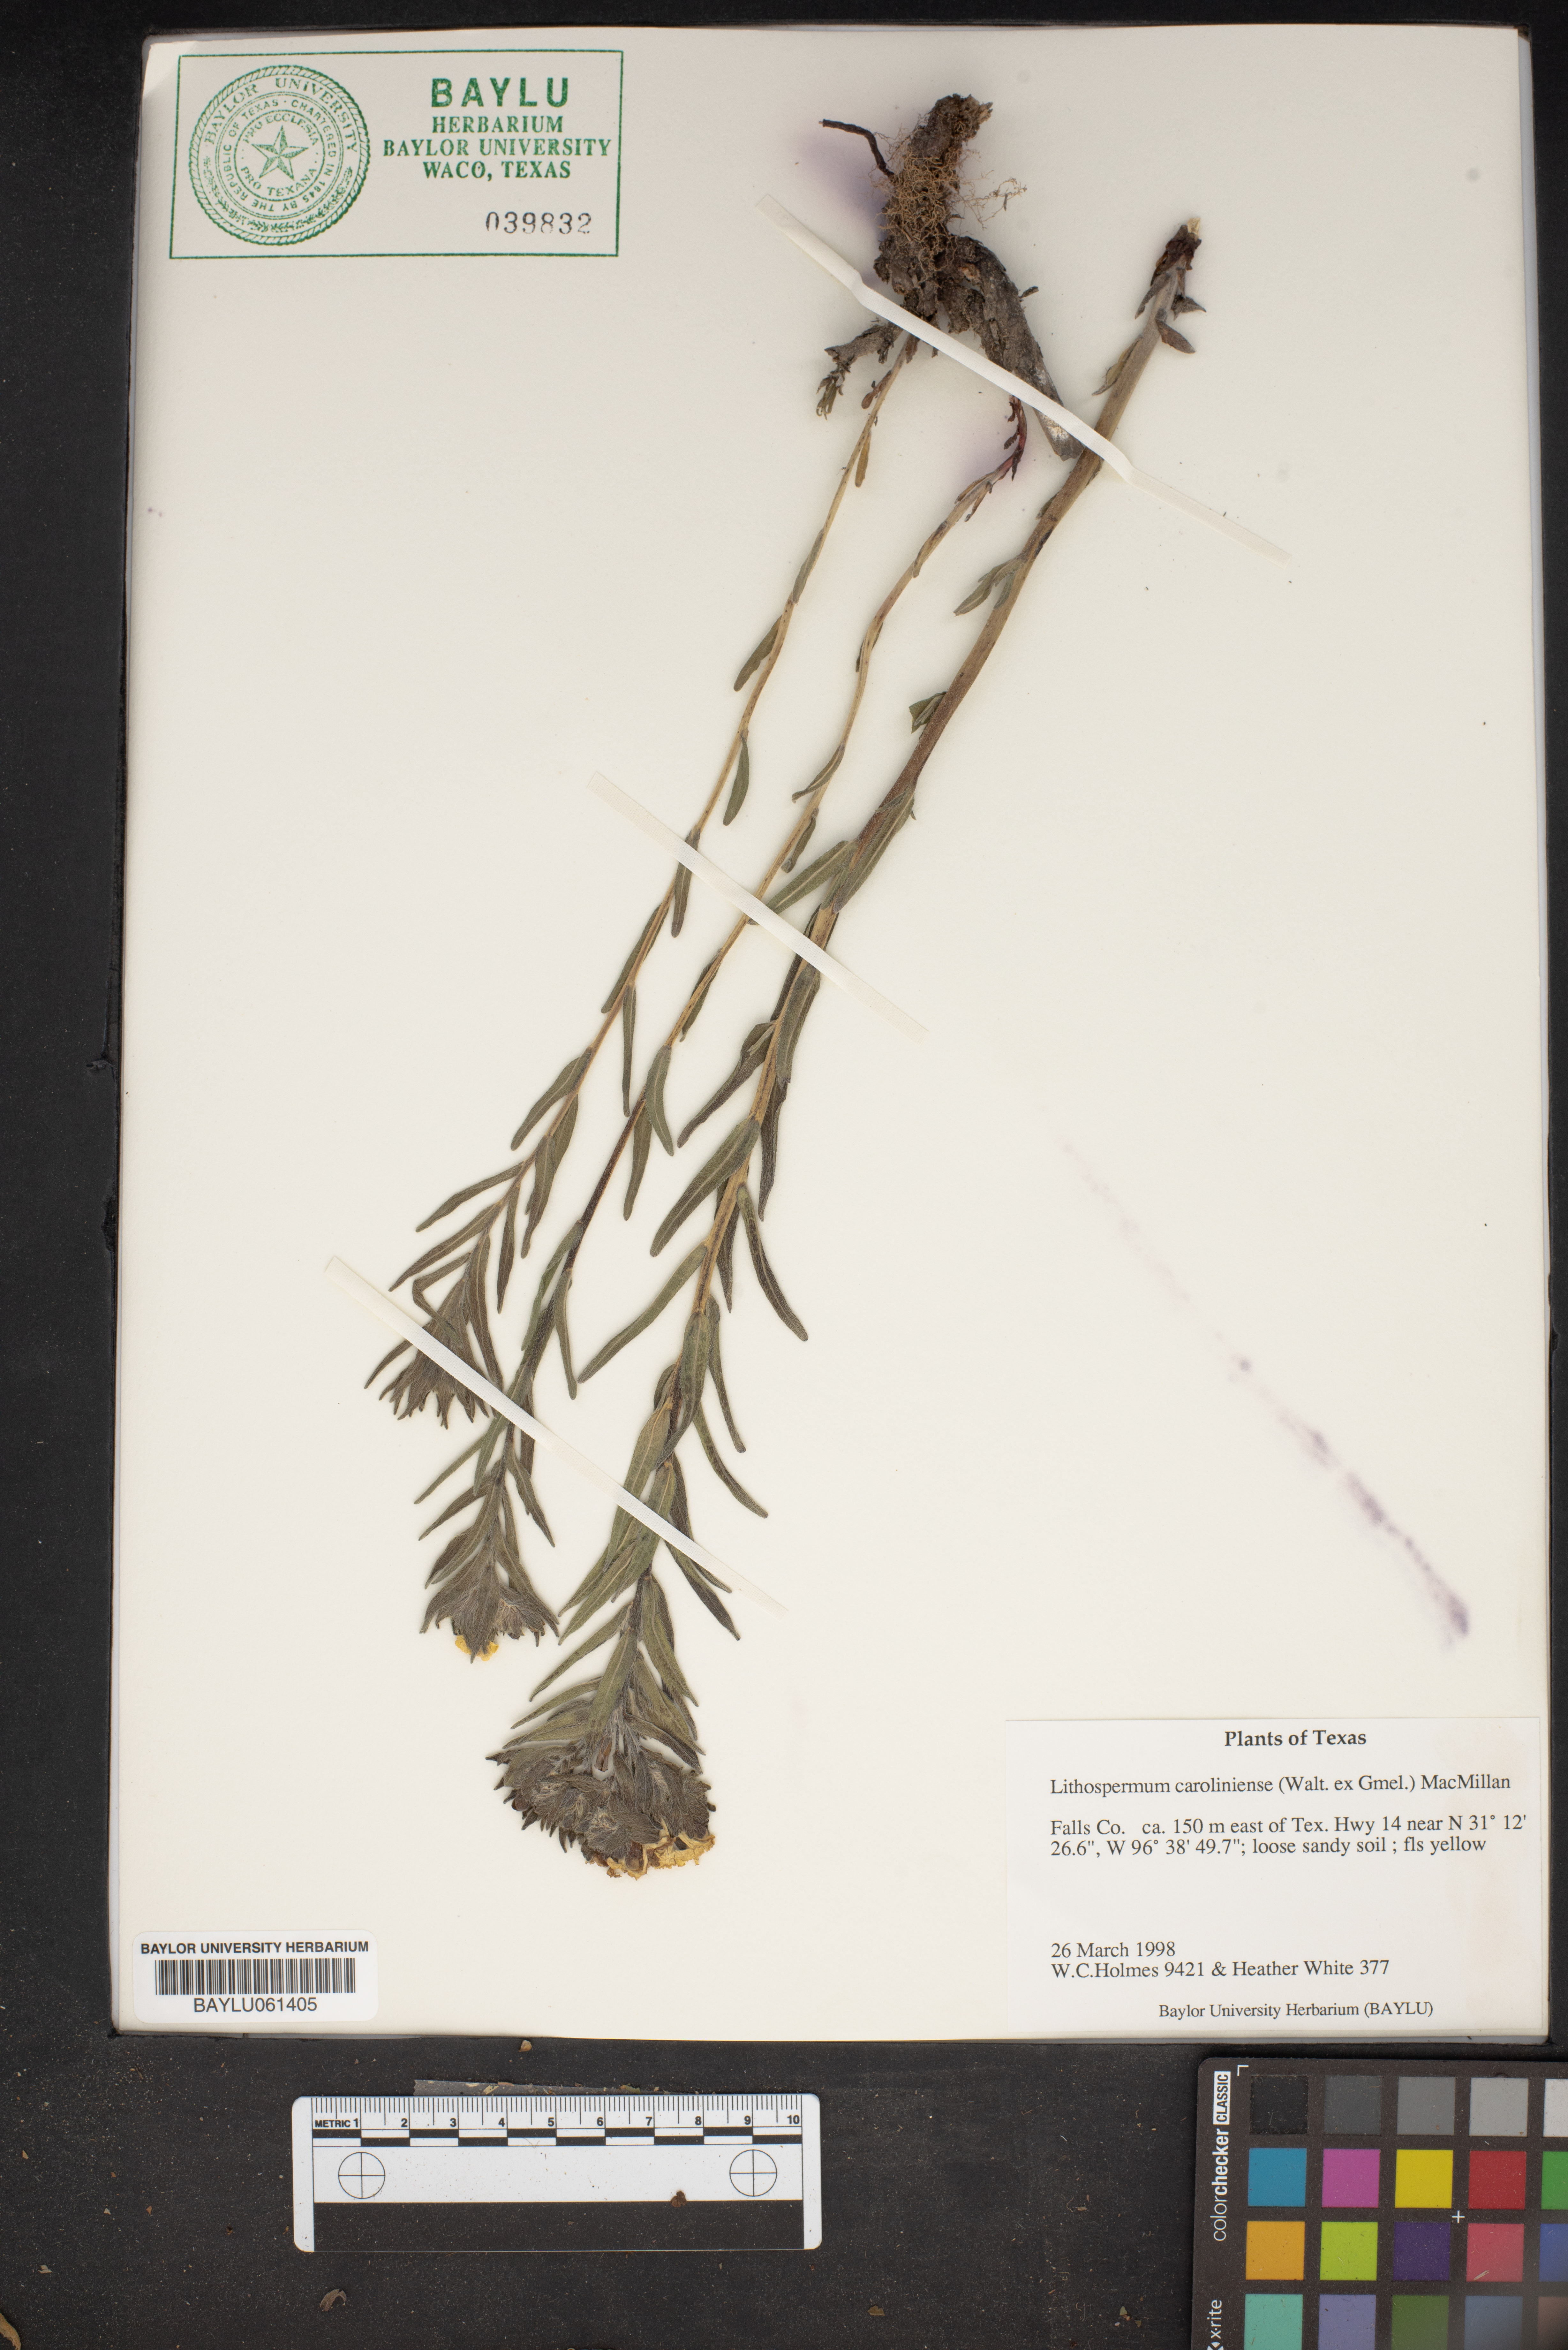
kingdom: Plantae
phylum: Tracheophyta
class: Magnoliopsida
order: Boraginales
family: Boraginaceae
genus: Lithospermum
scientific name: Lithospermum caroliniense
